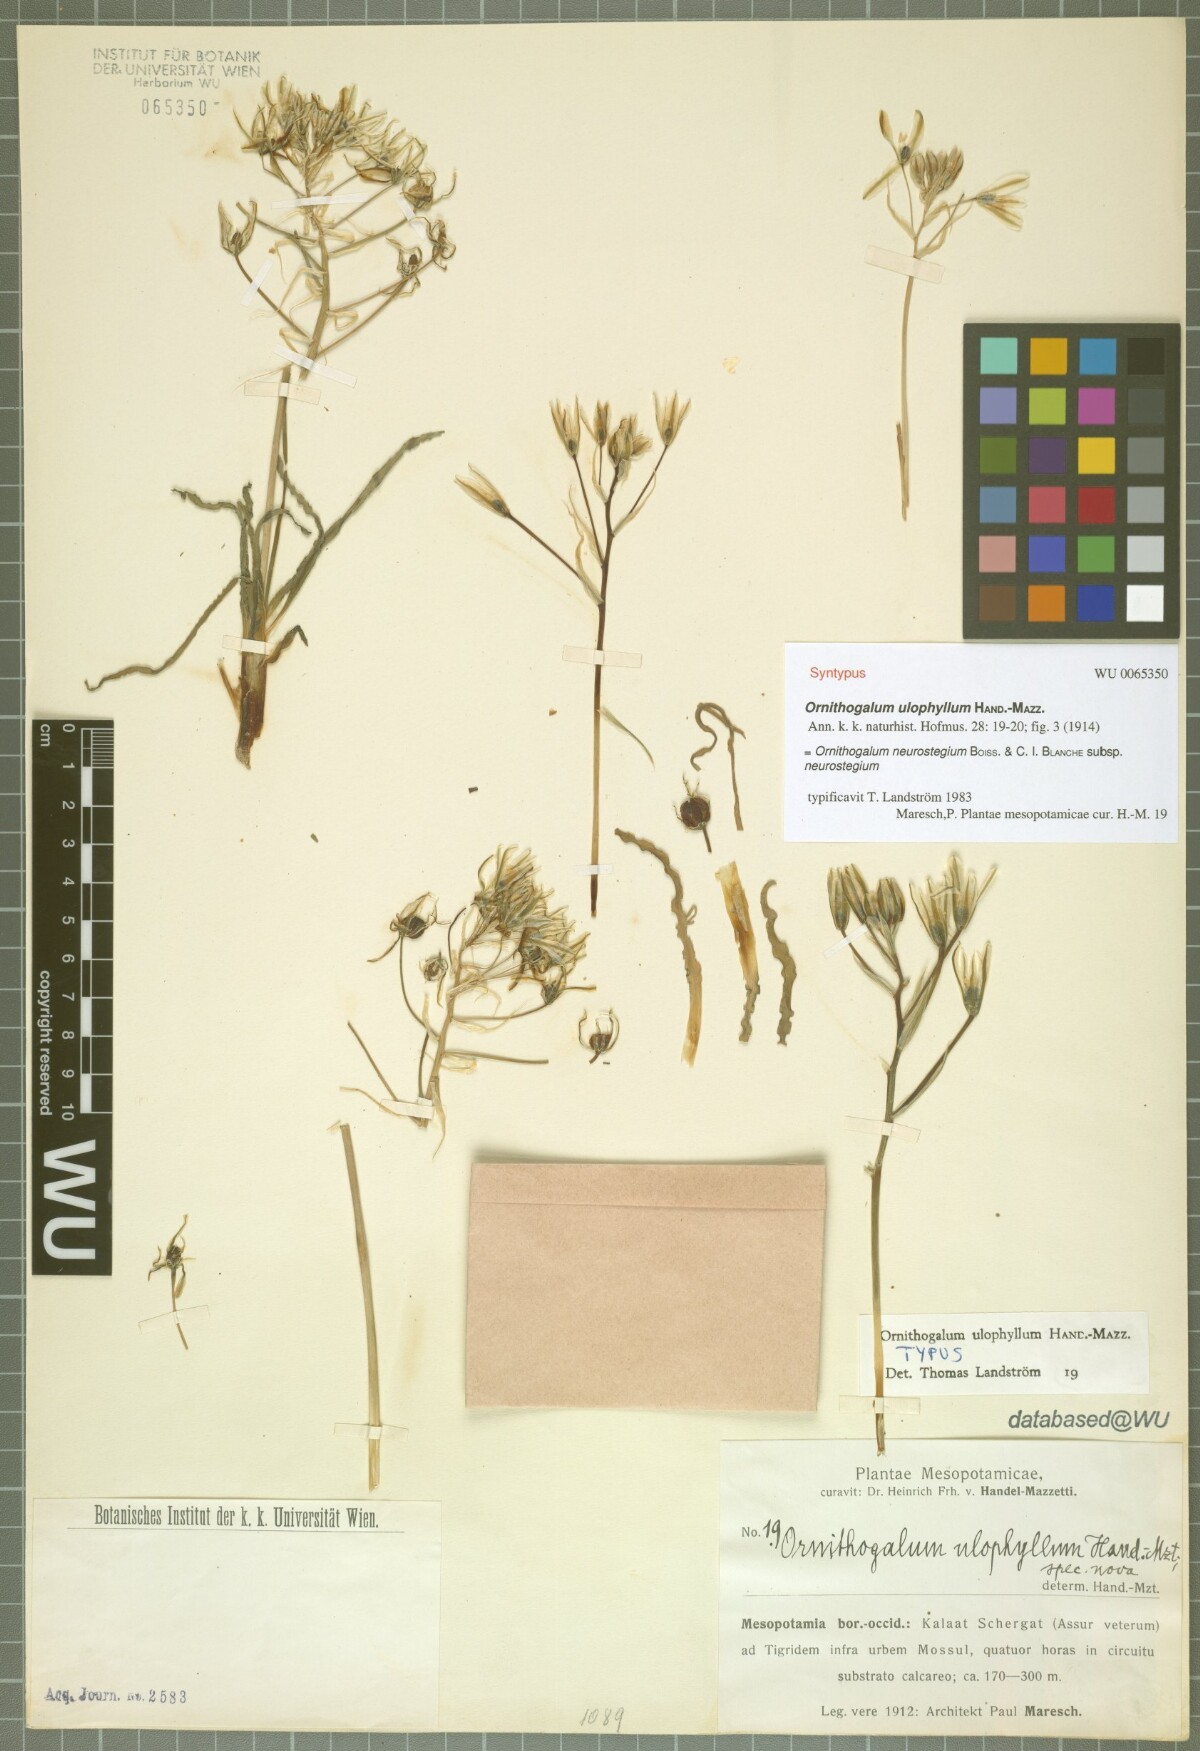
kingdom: Plantae
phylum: Tracheophyta
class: Liliopsida
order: Asparagales
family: Asparagaceae
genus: Ornithogalum
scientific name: Ornithogalum neurostegium
